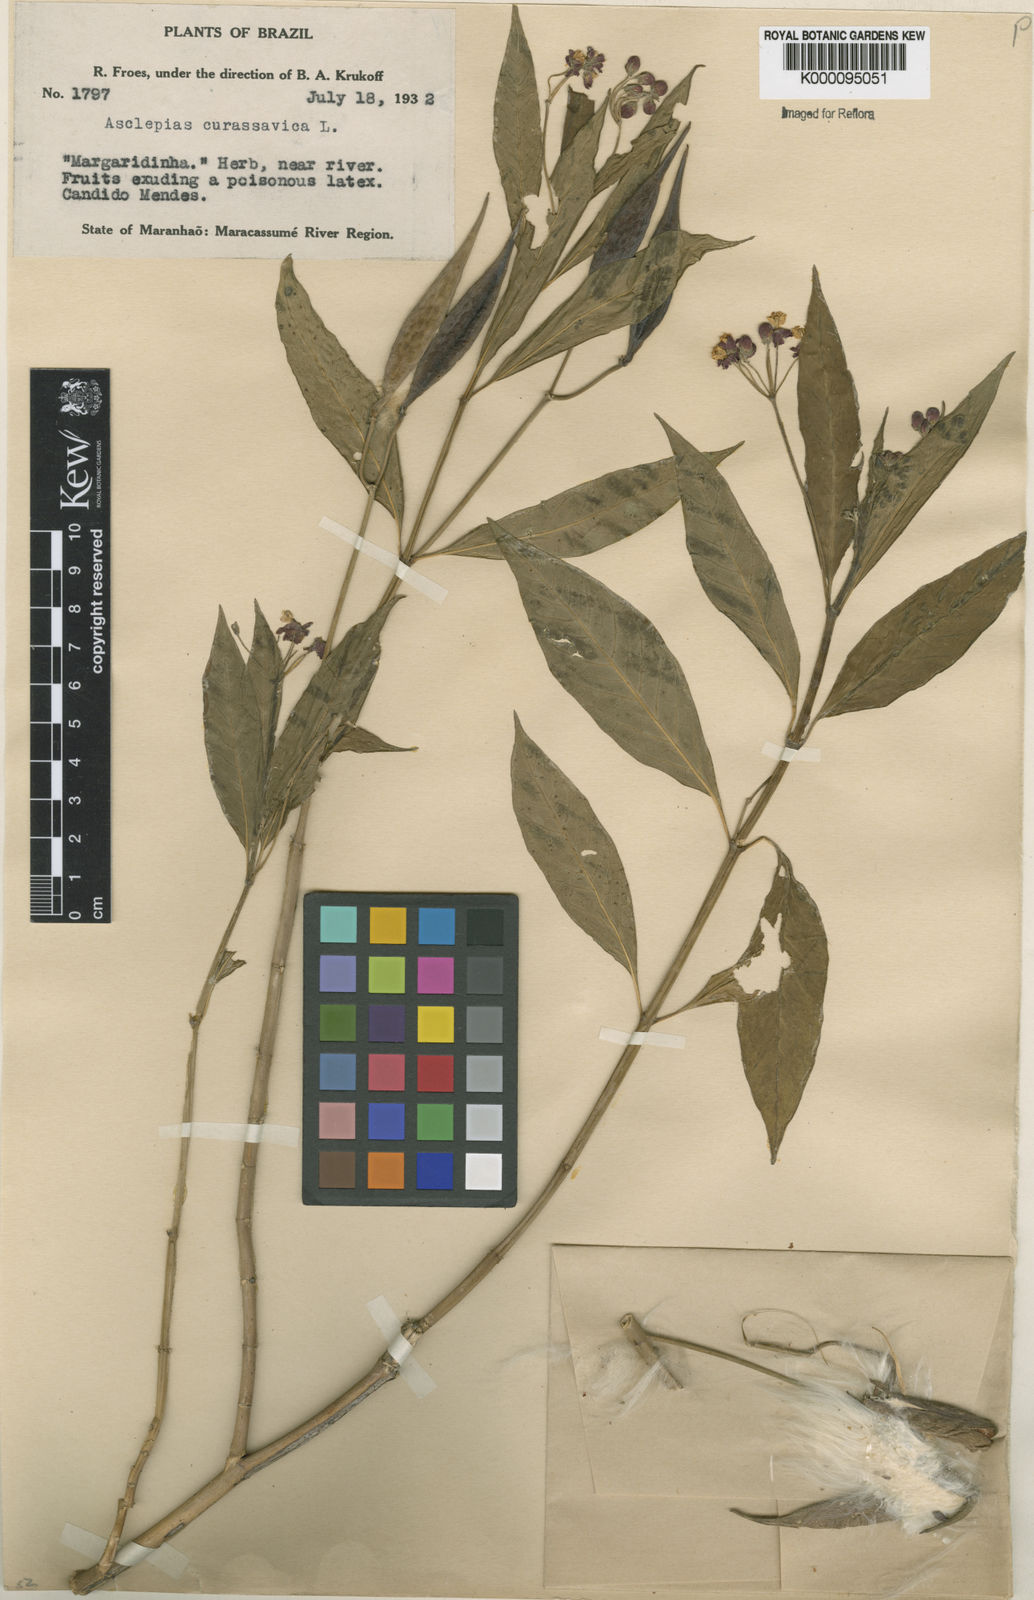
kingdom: Plantae
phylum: Tracheophyta
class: Magnoliopsida
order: Gentianales
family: Apocynaceae
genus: Asclepias
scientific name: Asclepias curassavica
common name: Bloodflower
